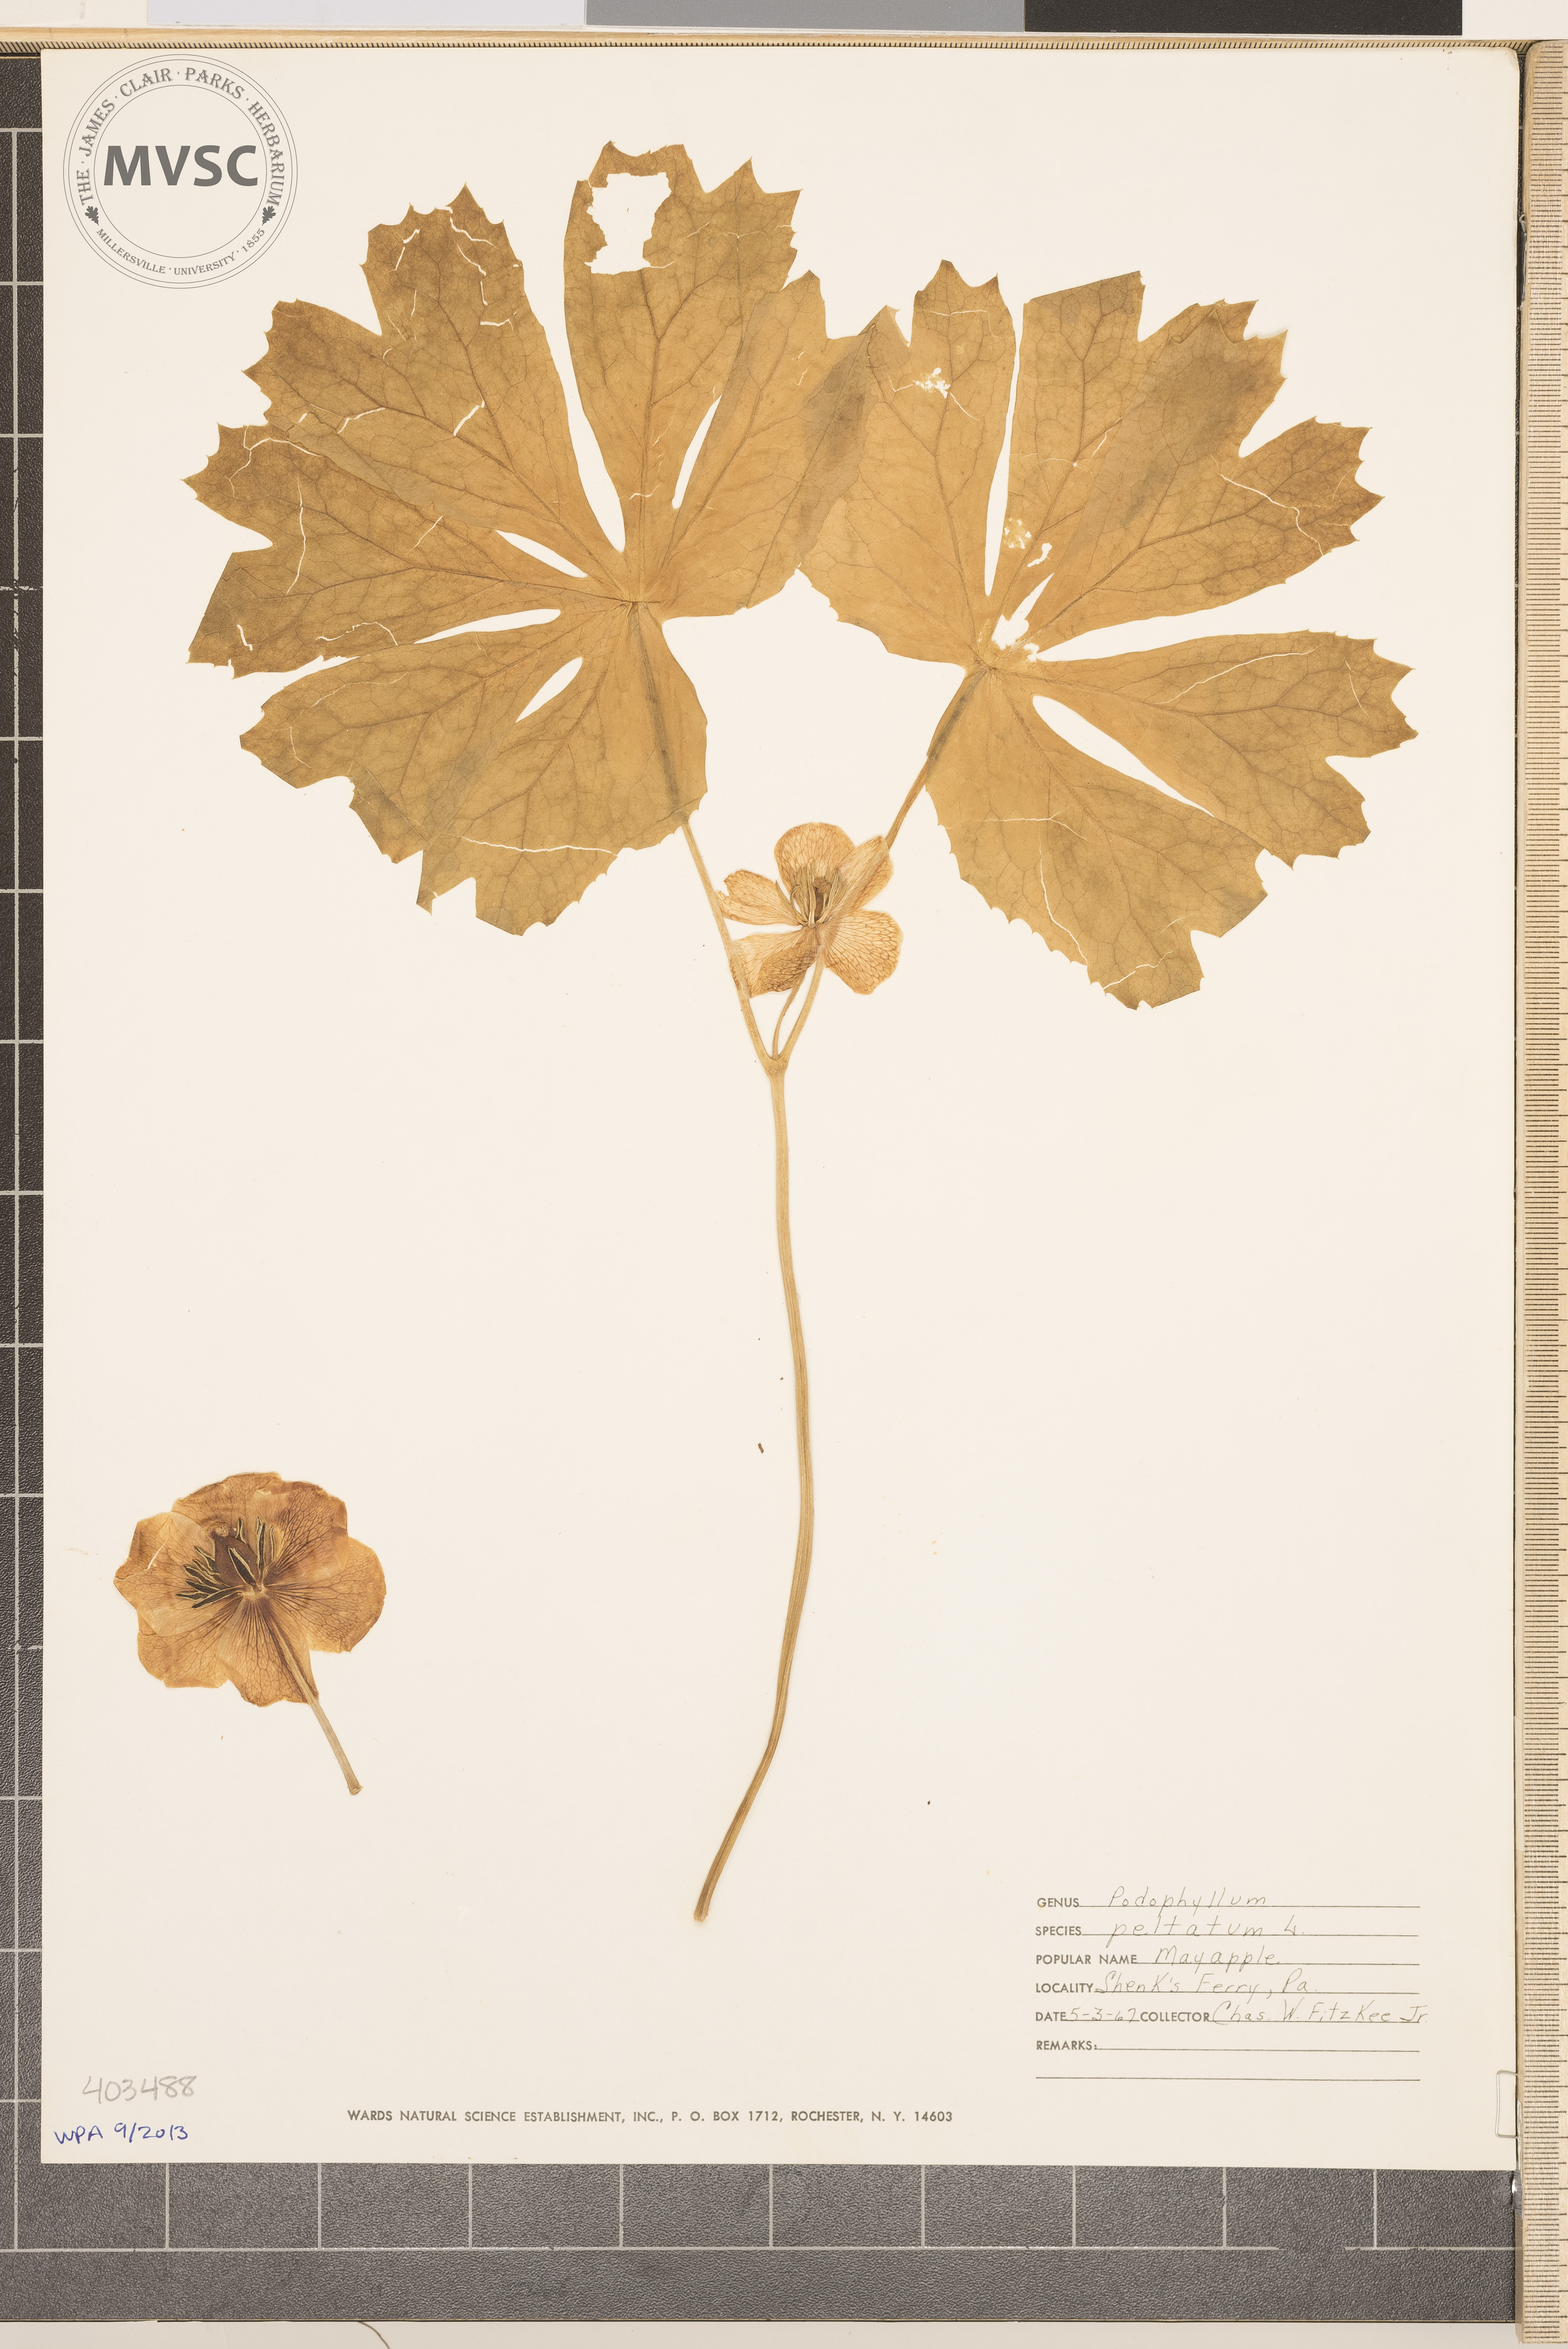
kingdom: Plantae
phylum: Tracheophyta
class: Magnoliopsida
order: Ranunculales
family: Berberidaceae
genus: Podophyllum
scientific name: Podophyllum peltatum
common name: May-Apple
